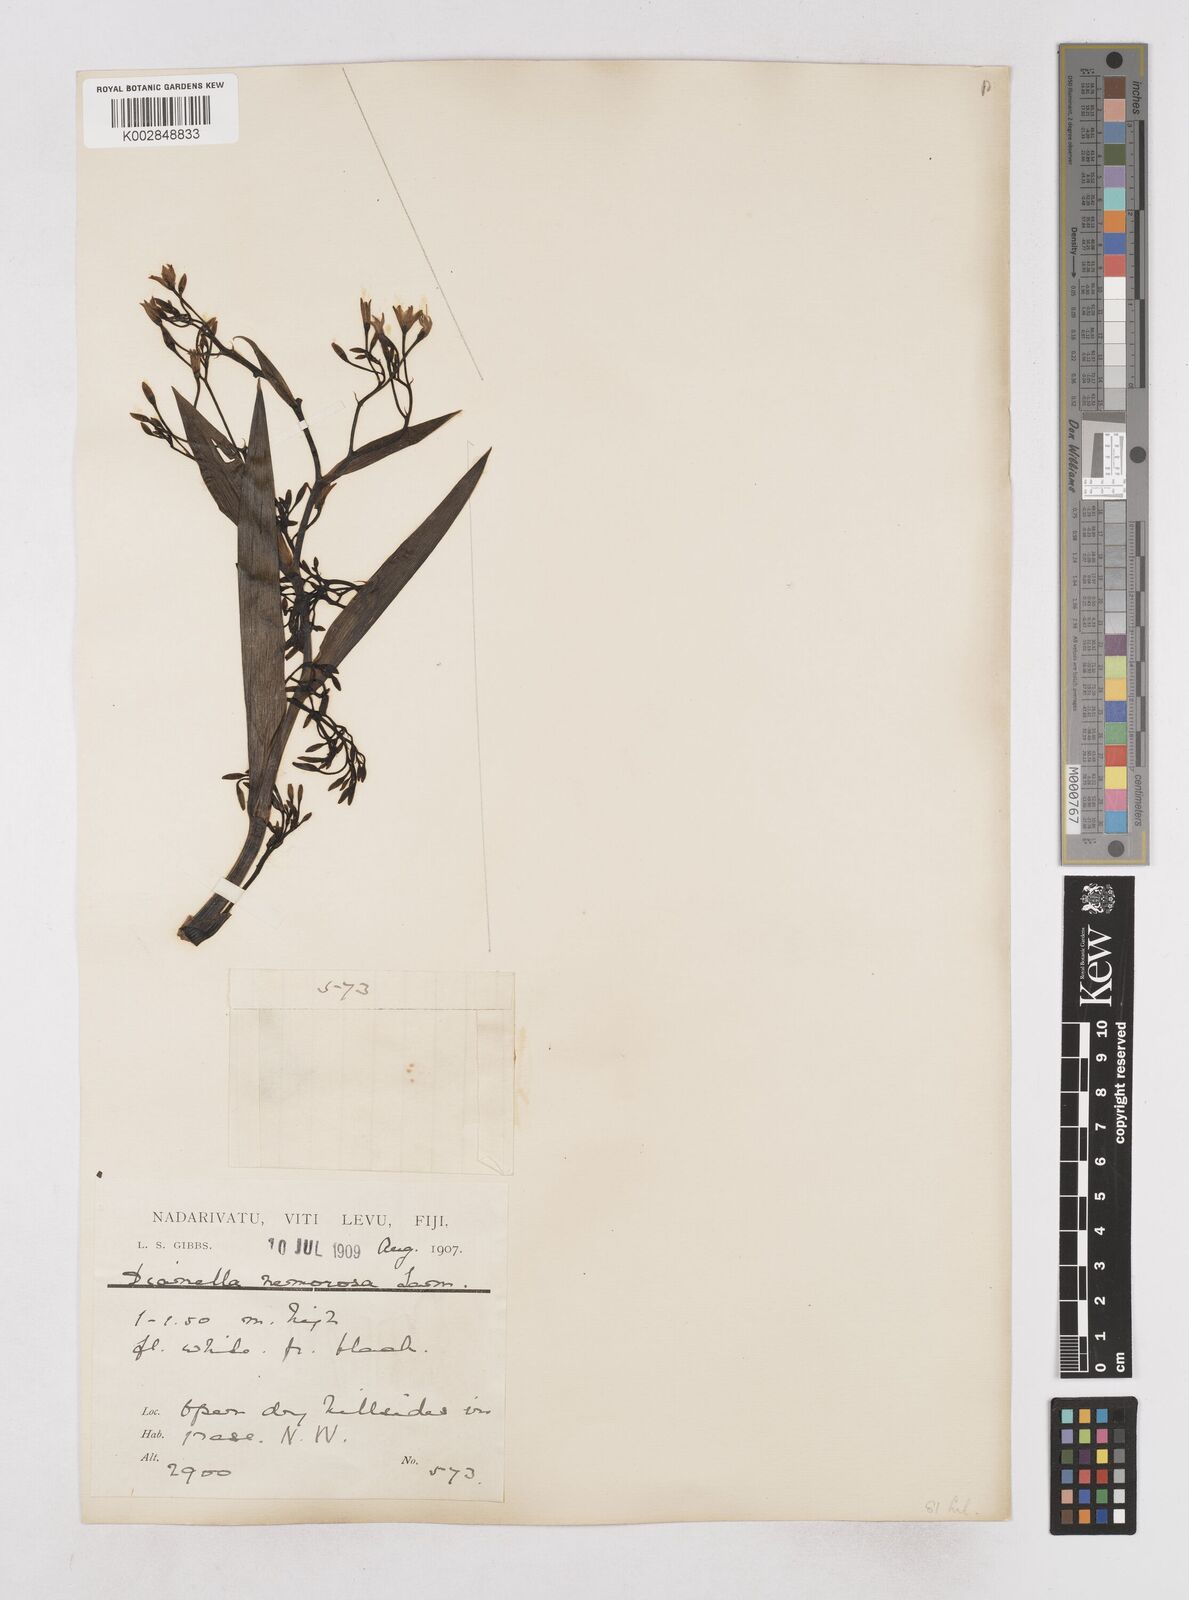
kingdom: Plantae
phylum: Tracheophyta
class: Liliopsida
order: Asparagales
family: Asphodelaceae
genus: Dianella
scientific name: Dianella ensifolia
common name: New zealand lilyplant
